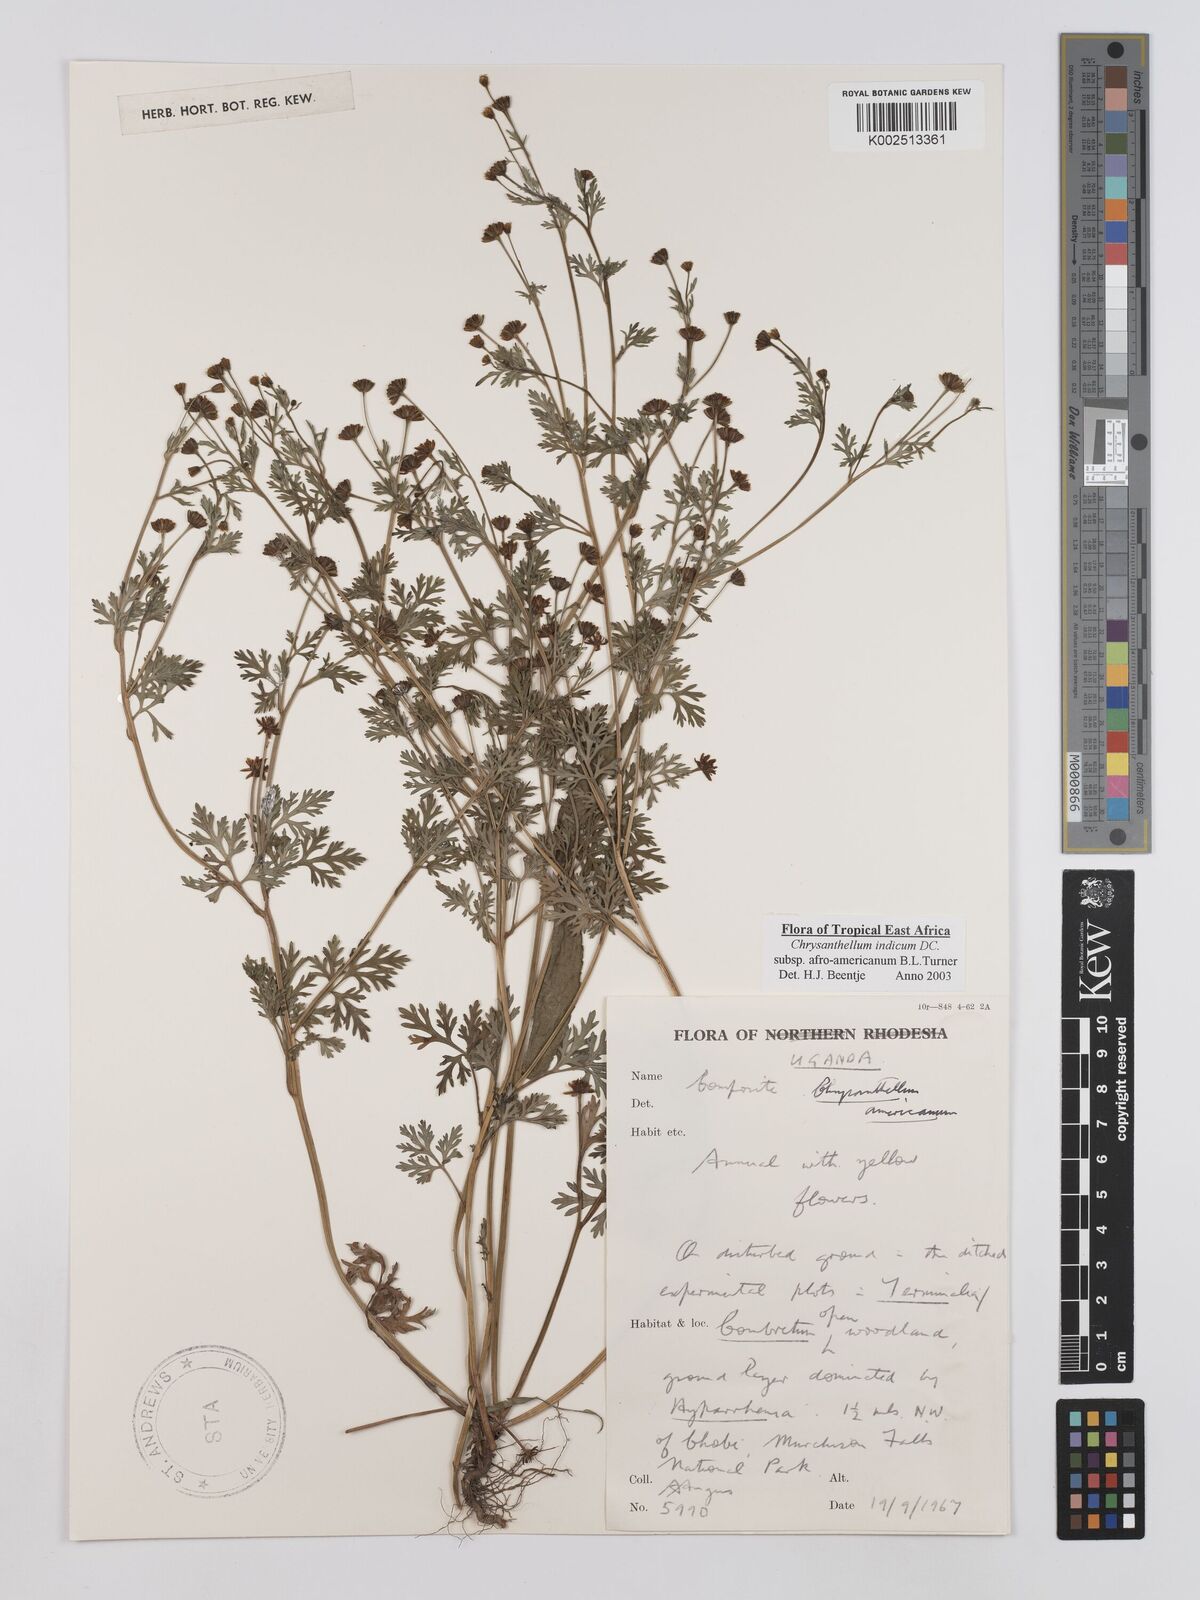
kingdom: Plantae
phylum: Tracheophyta
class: Magnoliopsida
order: Asterales
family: Asteraceae
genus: Chrysanthellum
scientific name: Chrysanthellum indicum
